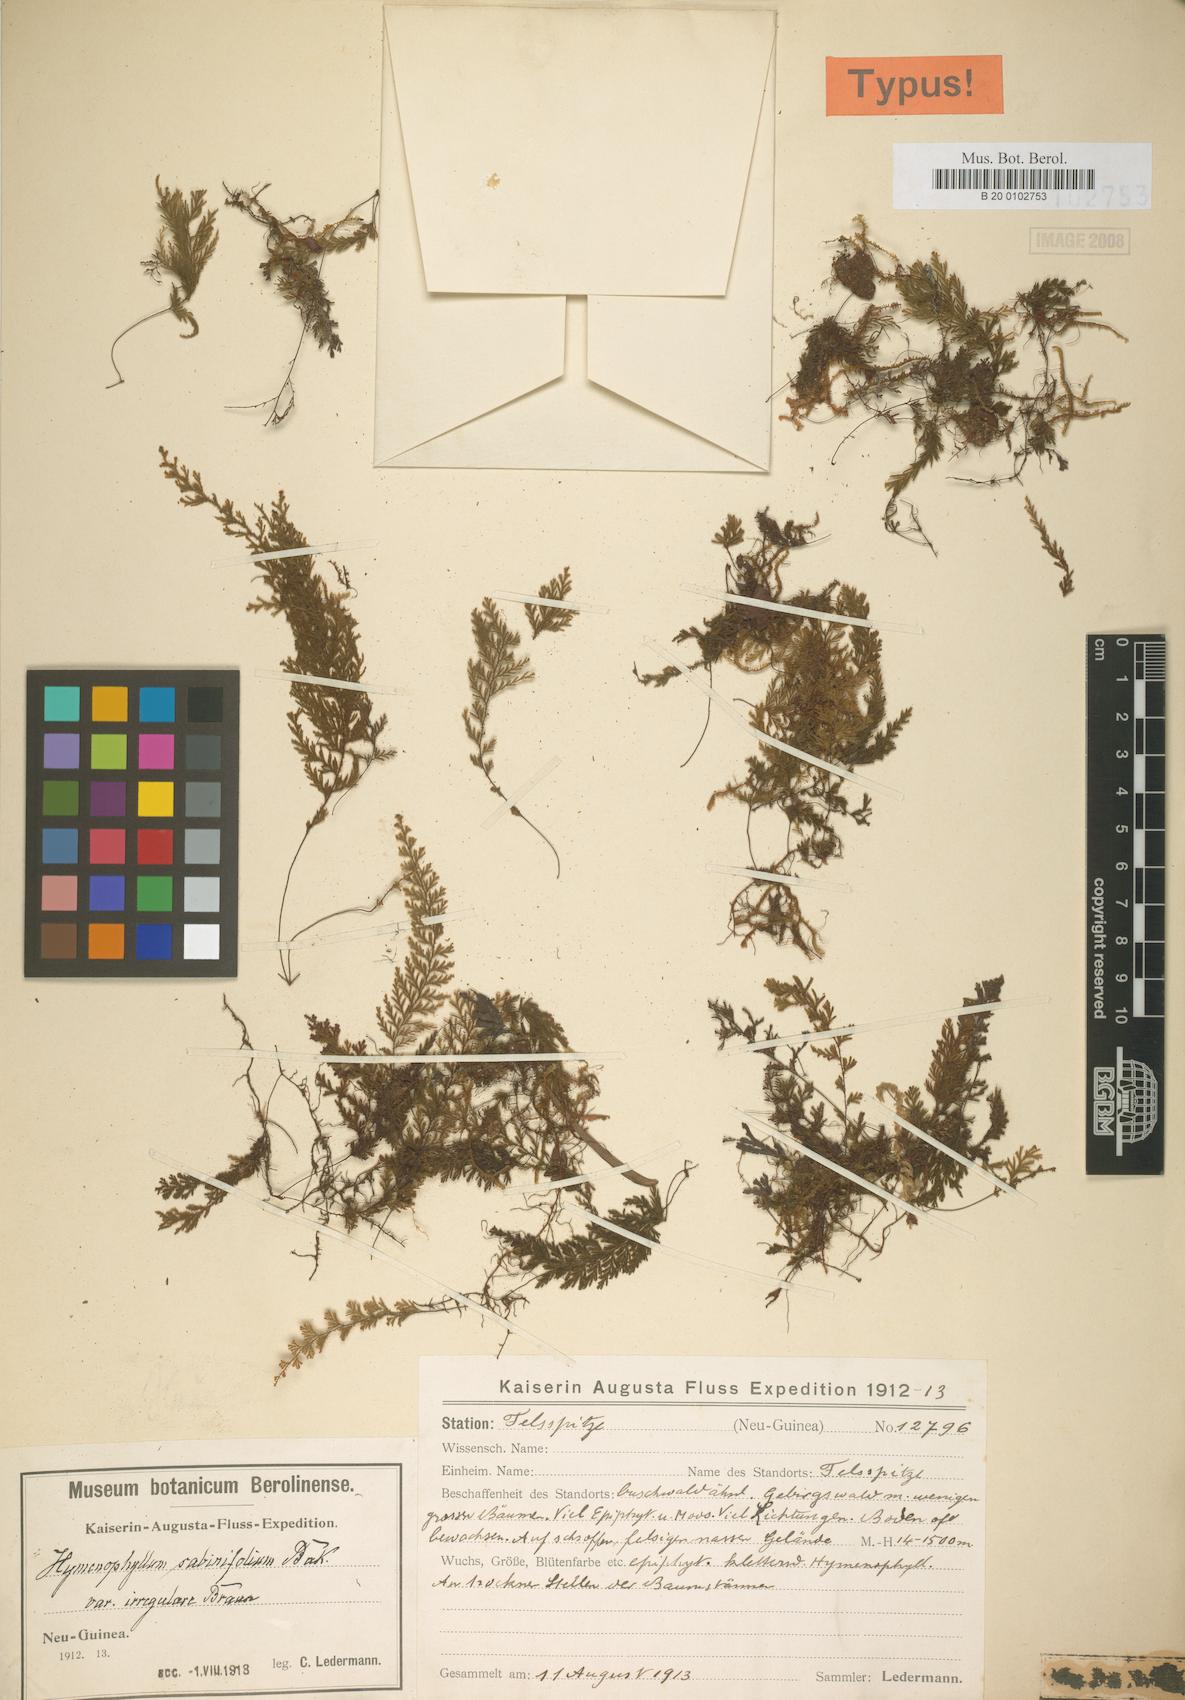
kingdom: Plantae
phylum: Tracheophyta
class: Polypodiopsida
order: Hymenophyllales
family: Hymenophyllaceae
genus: Hymenophyllum
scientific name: Hymenophyllum sabinifolium
